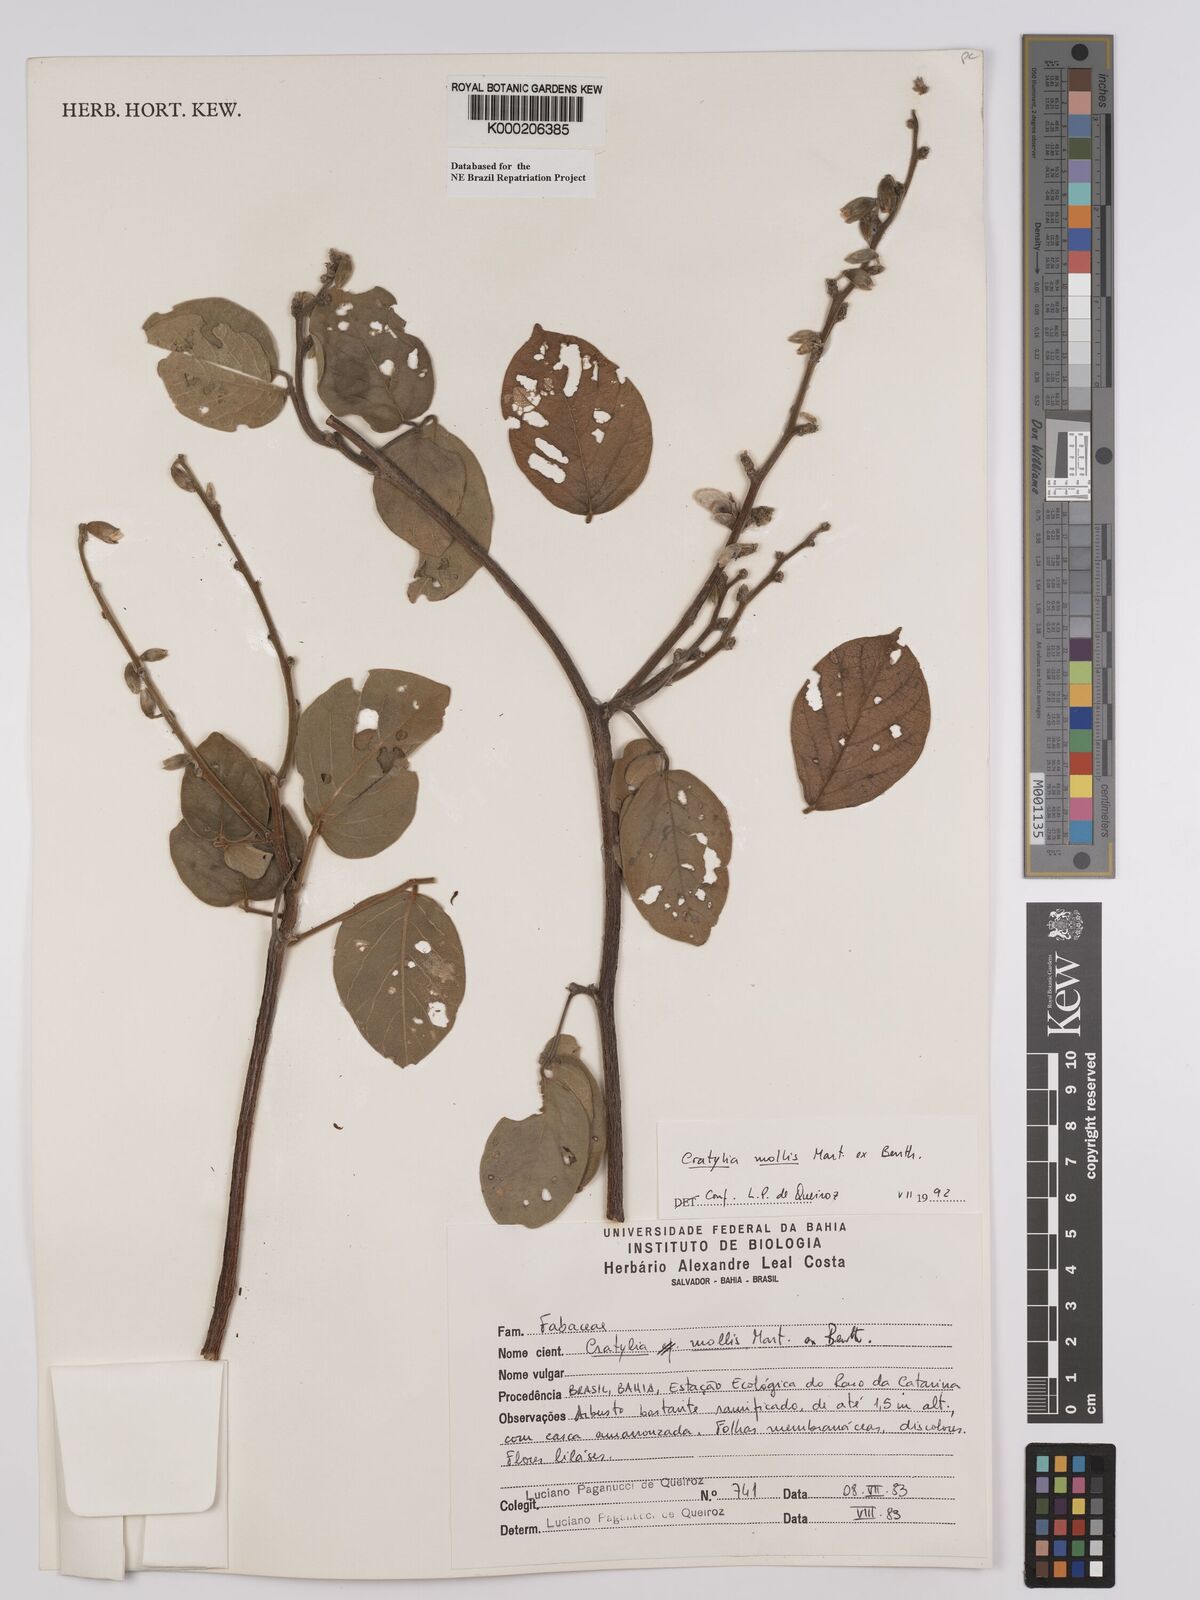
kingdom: Plantae
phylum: Tracheophyta
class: Magnoliopsida
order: Fabales
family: Fabaceae
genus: Cratylia
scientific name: Cratylia mollis
